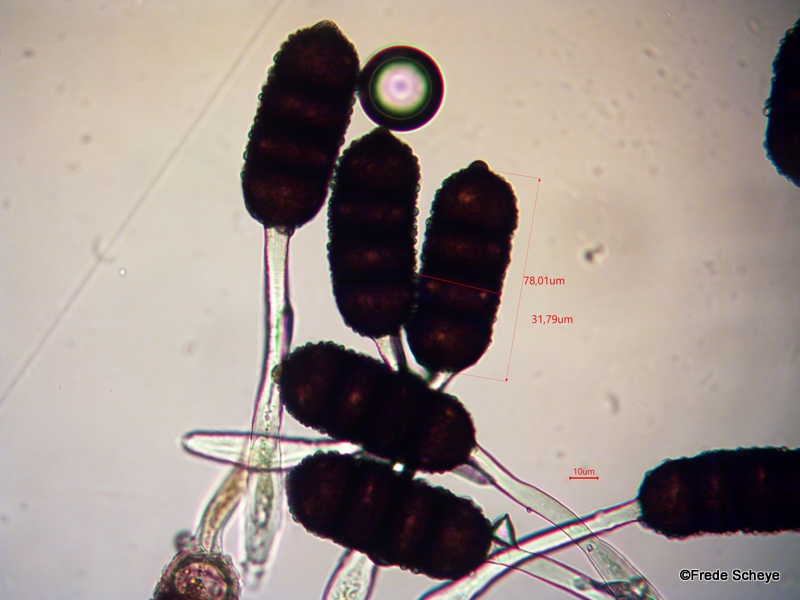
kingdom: Fungi
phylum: Basidiomycota
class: Pucciniomycetes
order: Pucciniales
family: Phragmidiaceae
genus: Phragmidium
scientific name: Phragmidium violaceum
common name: violet flercellerust
